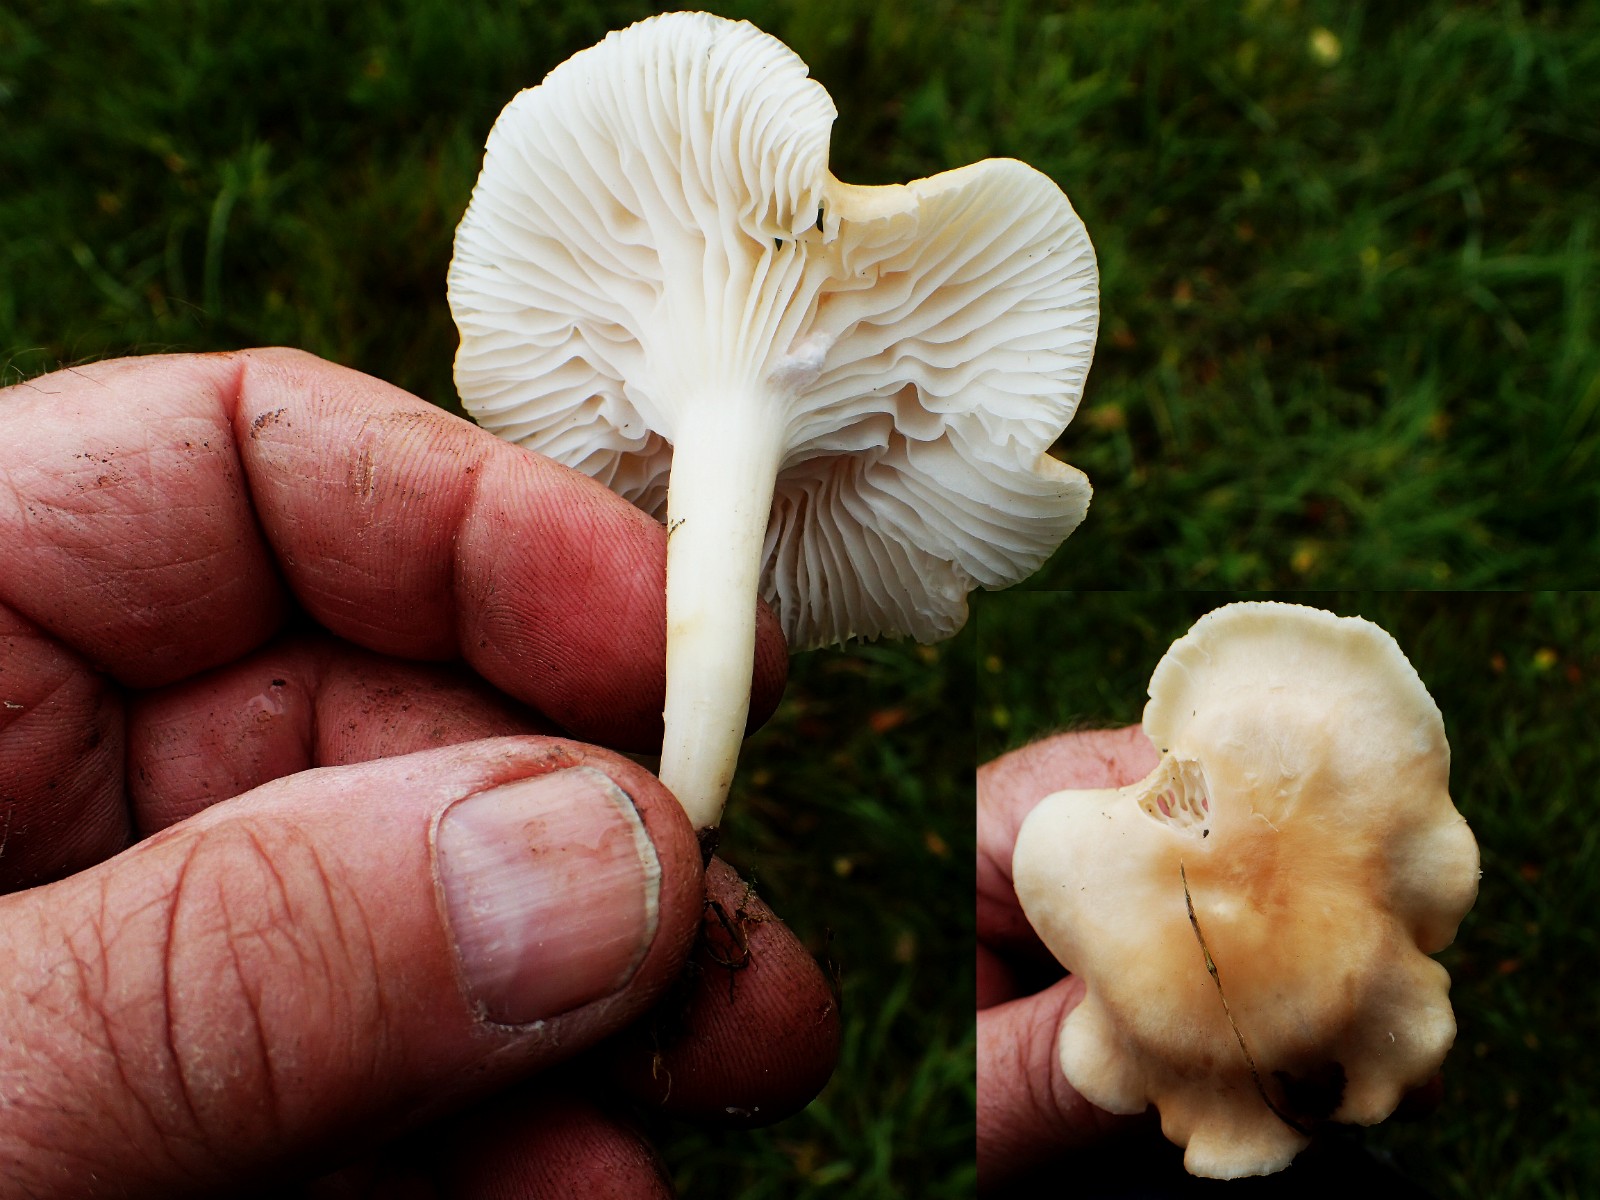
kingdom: Fungi
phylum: Basidiomycota
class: Agaricomycetes
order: Agaricales
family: Hygrophoraceae
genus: Cuphophyllus
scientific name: Cuphophyllus pratensis
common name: eng-vokshat
